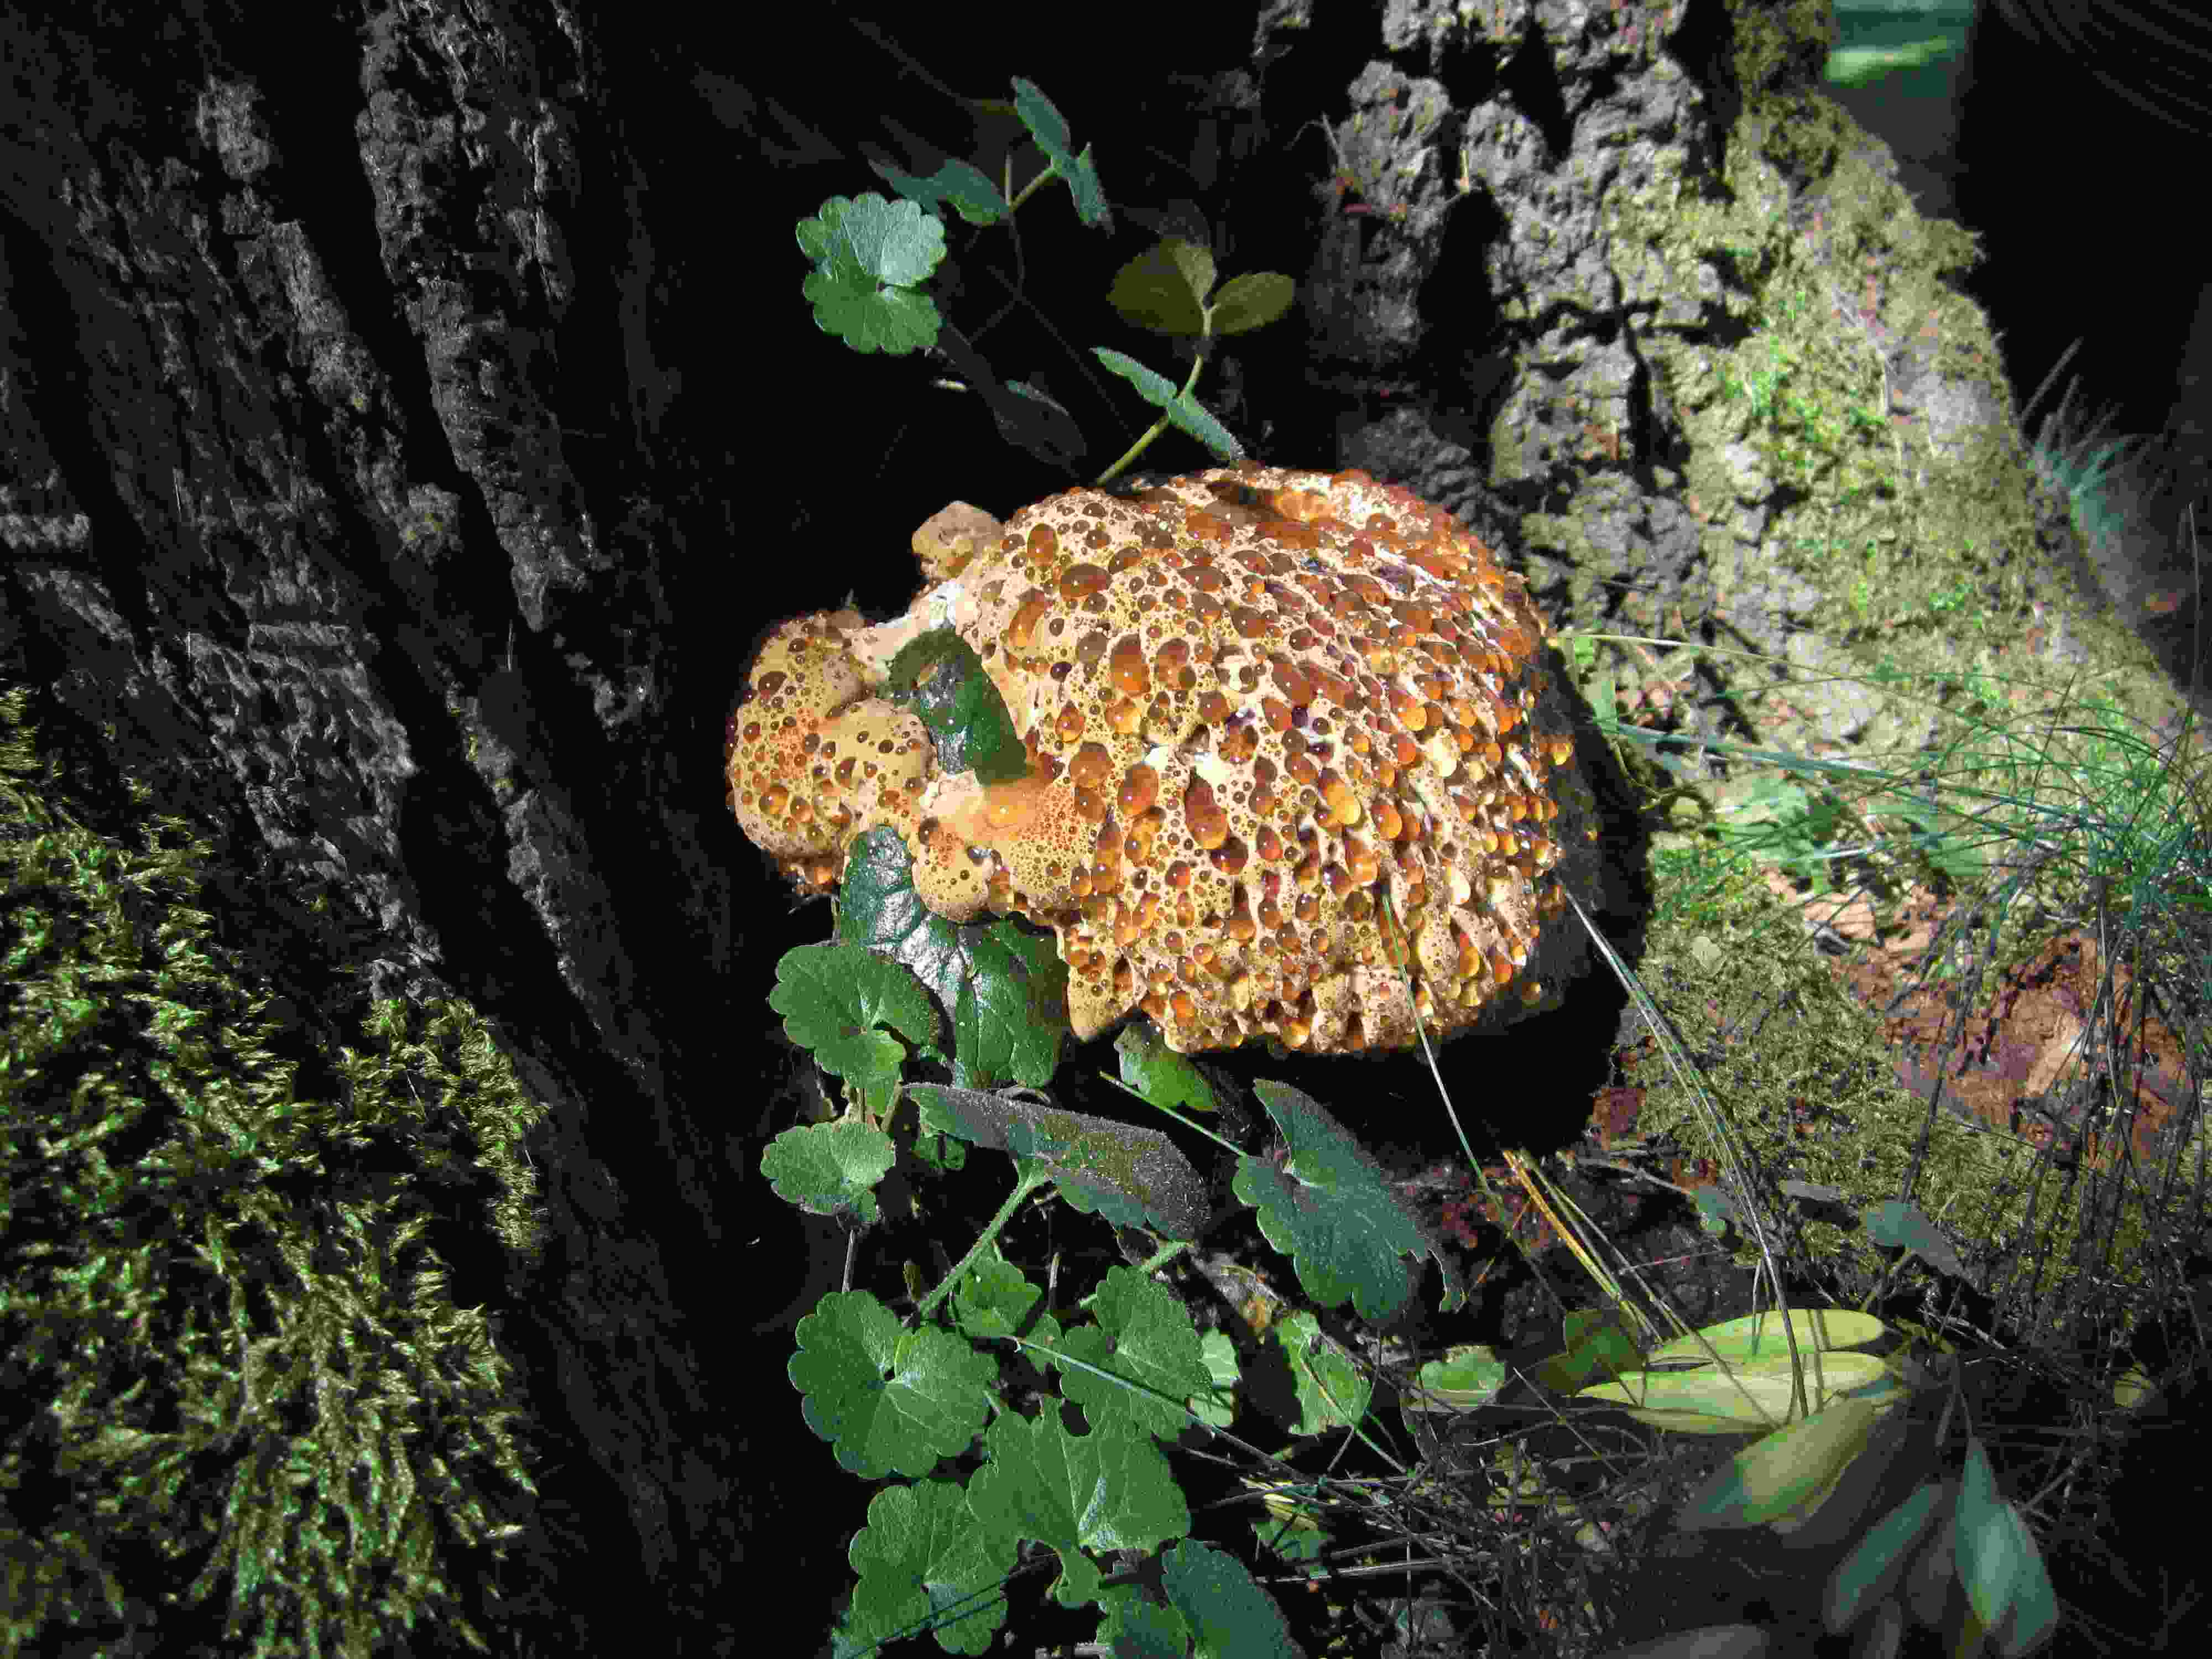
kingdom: Fungi
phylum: Basidiomycota
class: Agaricomycetes
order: Hymenochaetales
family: Hymenochaetaceae
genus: Pseudoinonotus
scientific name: Pseudoinonotus dryadeus
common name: ege-spejlporesvamp
